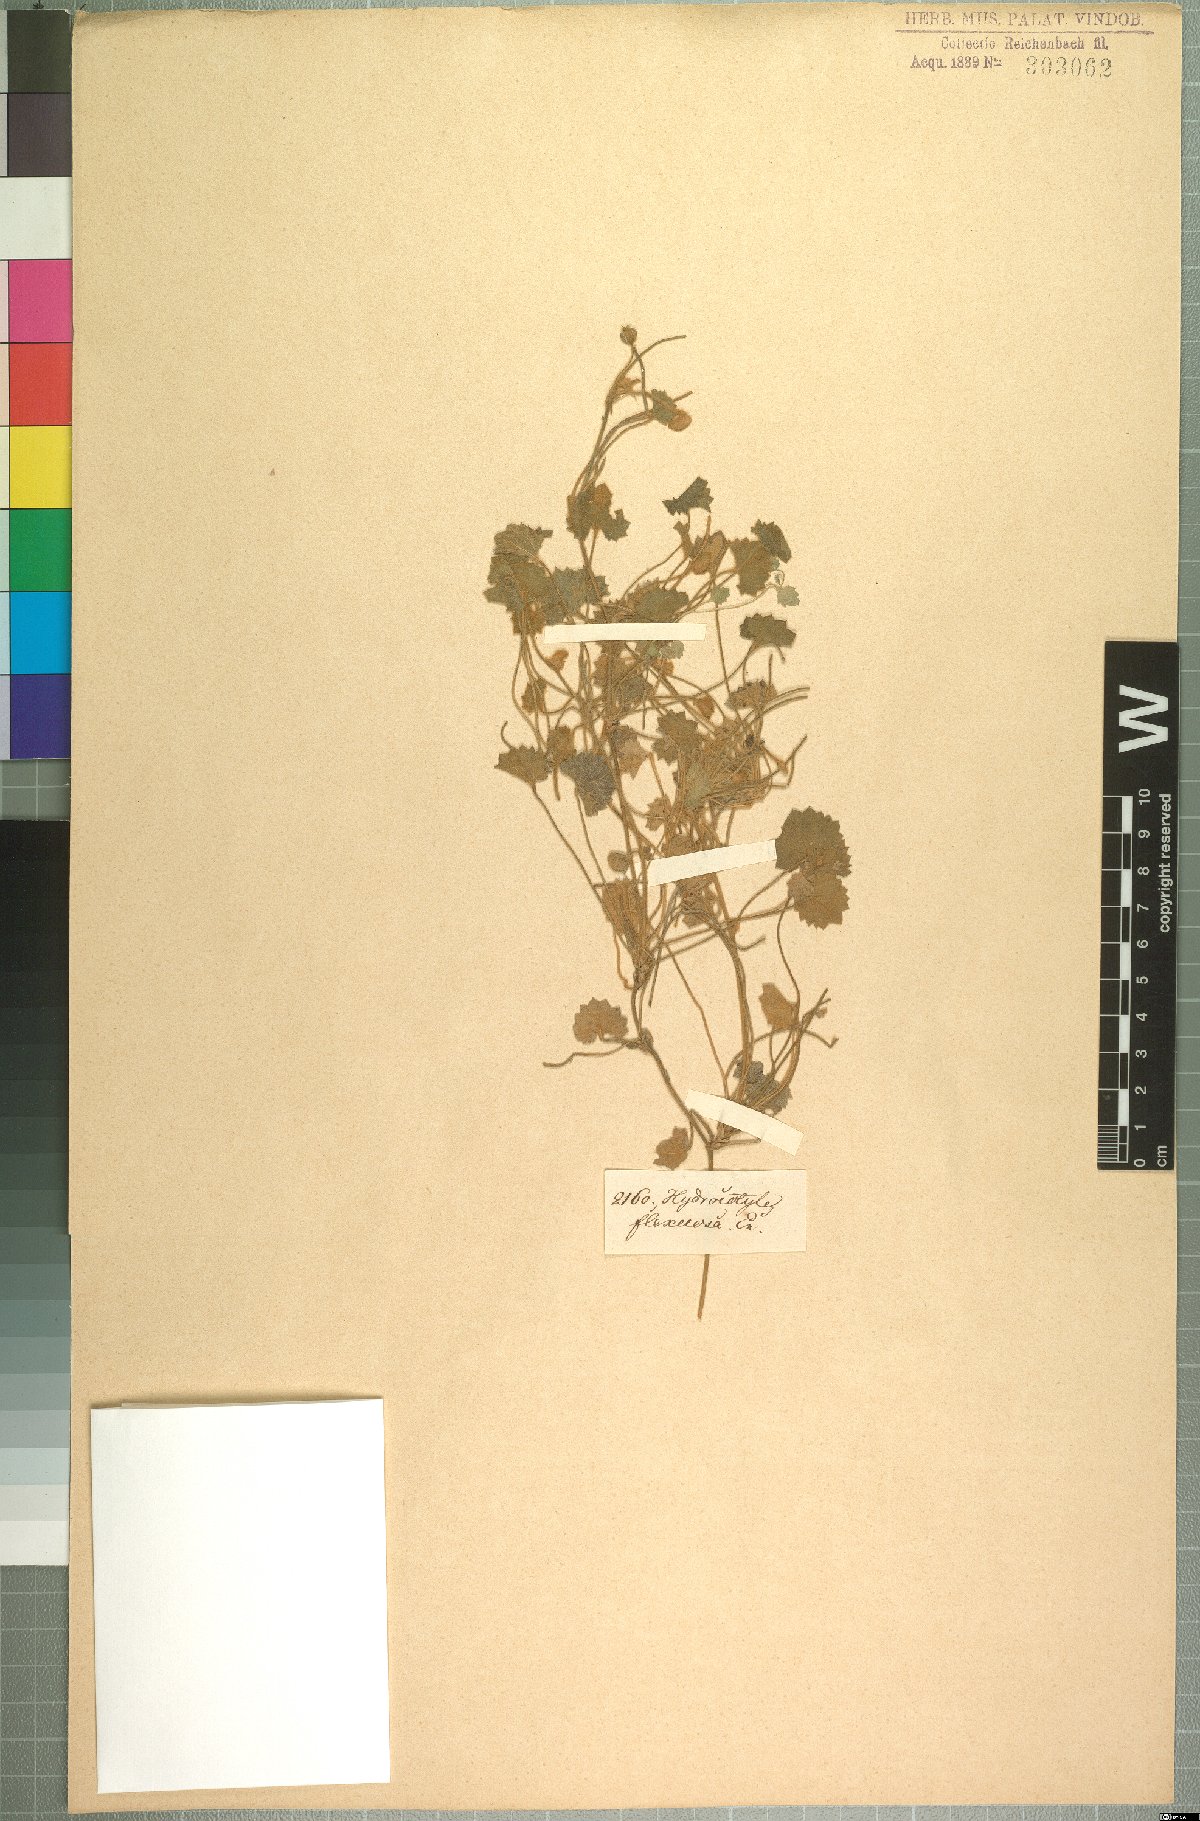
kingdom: Plantae
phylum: Tracheophyta
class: Magnoliopsida
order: Apiales
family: Apiaceae
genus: Centella
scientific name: Centella flexuosa
